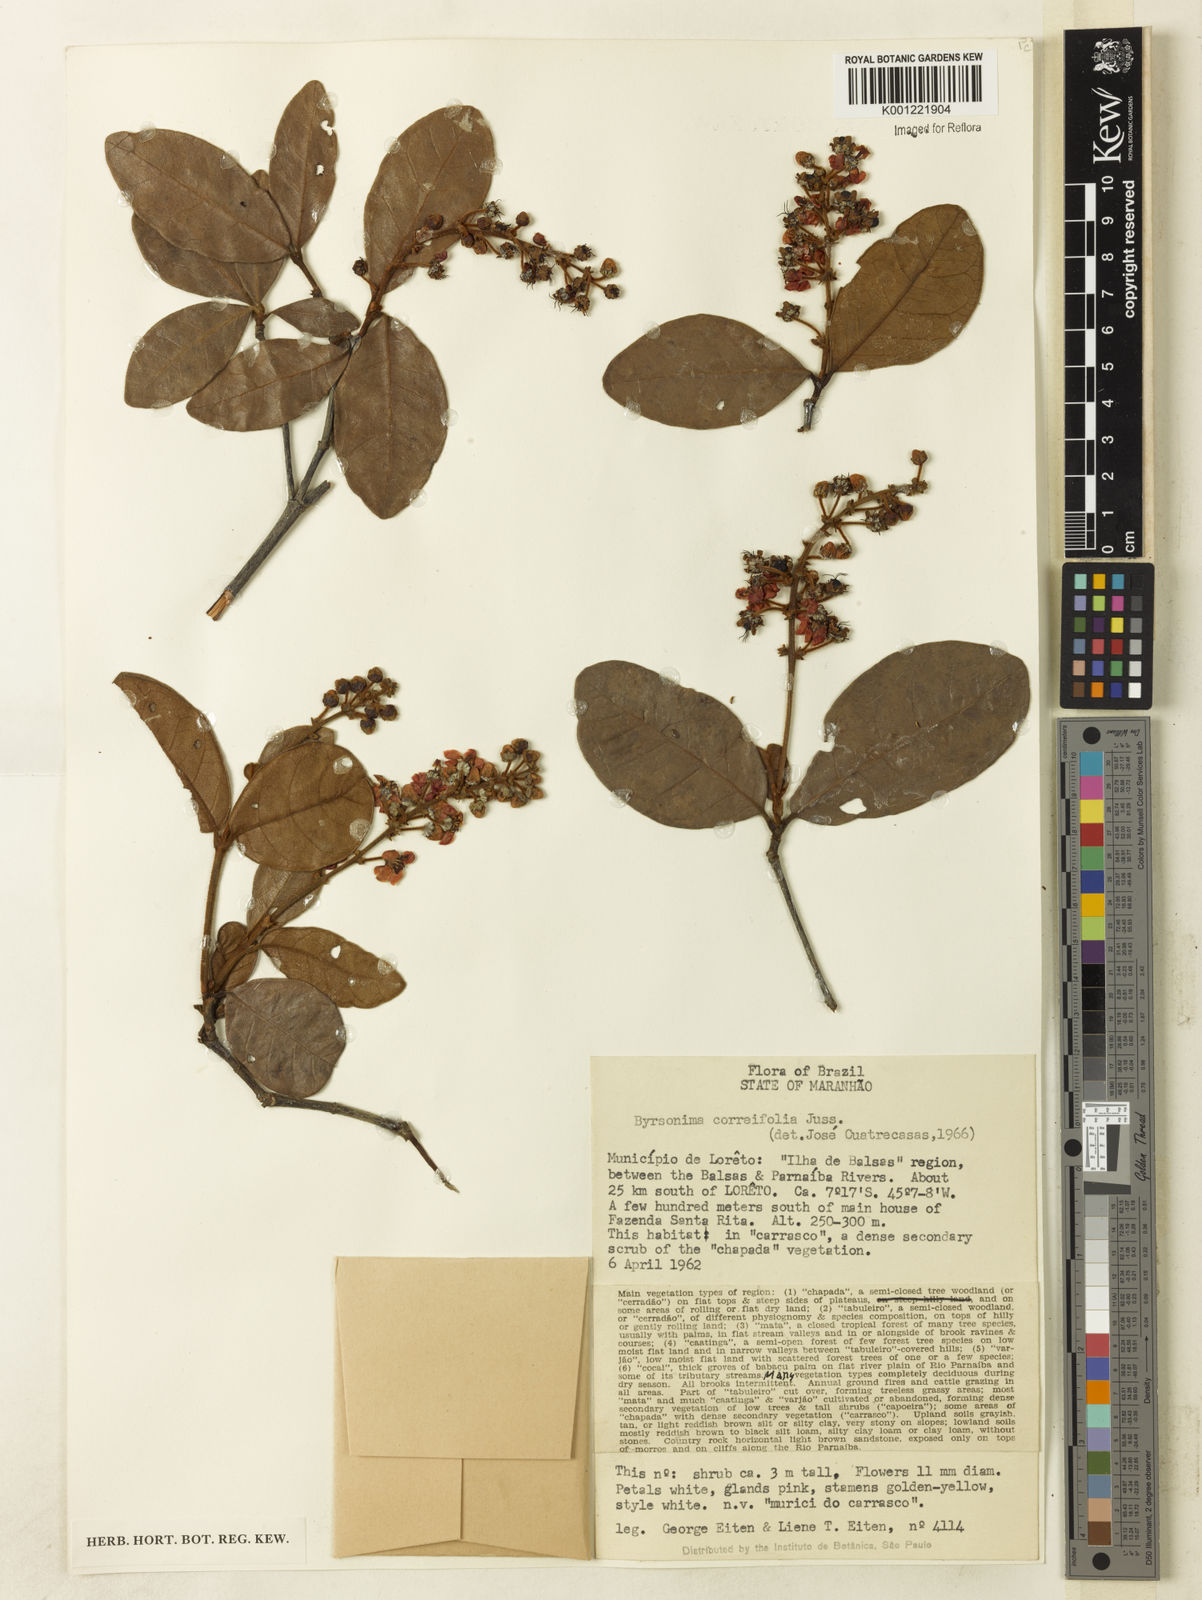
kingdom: Plantae
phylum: Tracheophyta
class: Magnoliopsida
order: Malpighiales
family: Malpighiaceae
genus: Byrsonima
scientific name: Byrsonima correifolia
